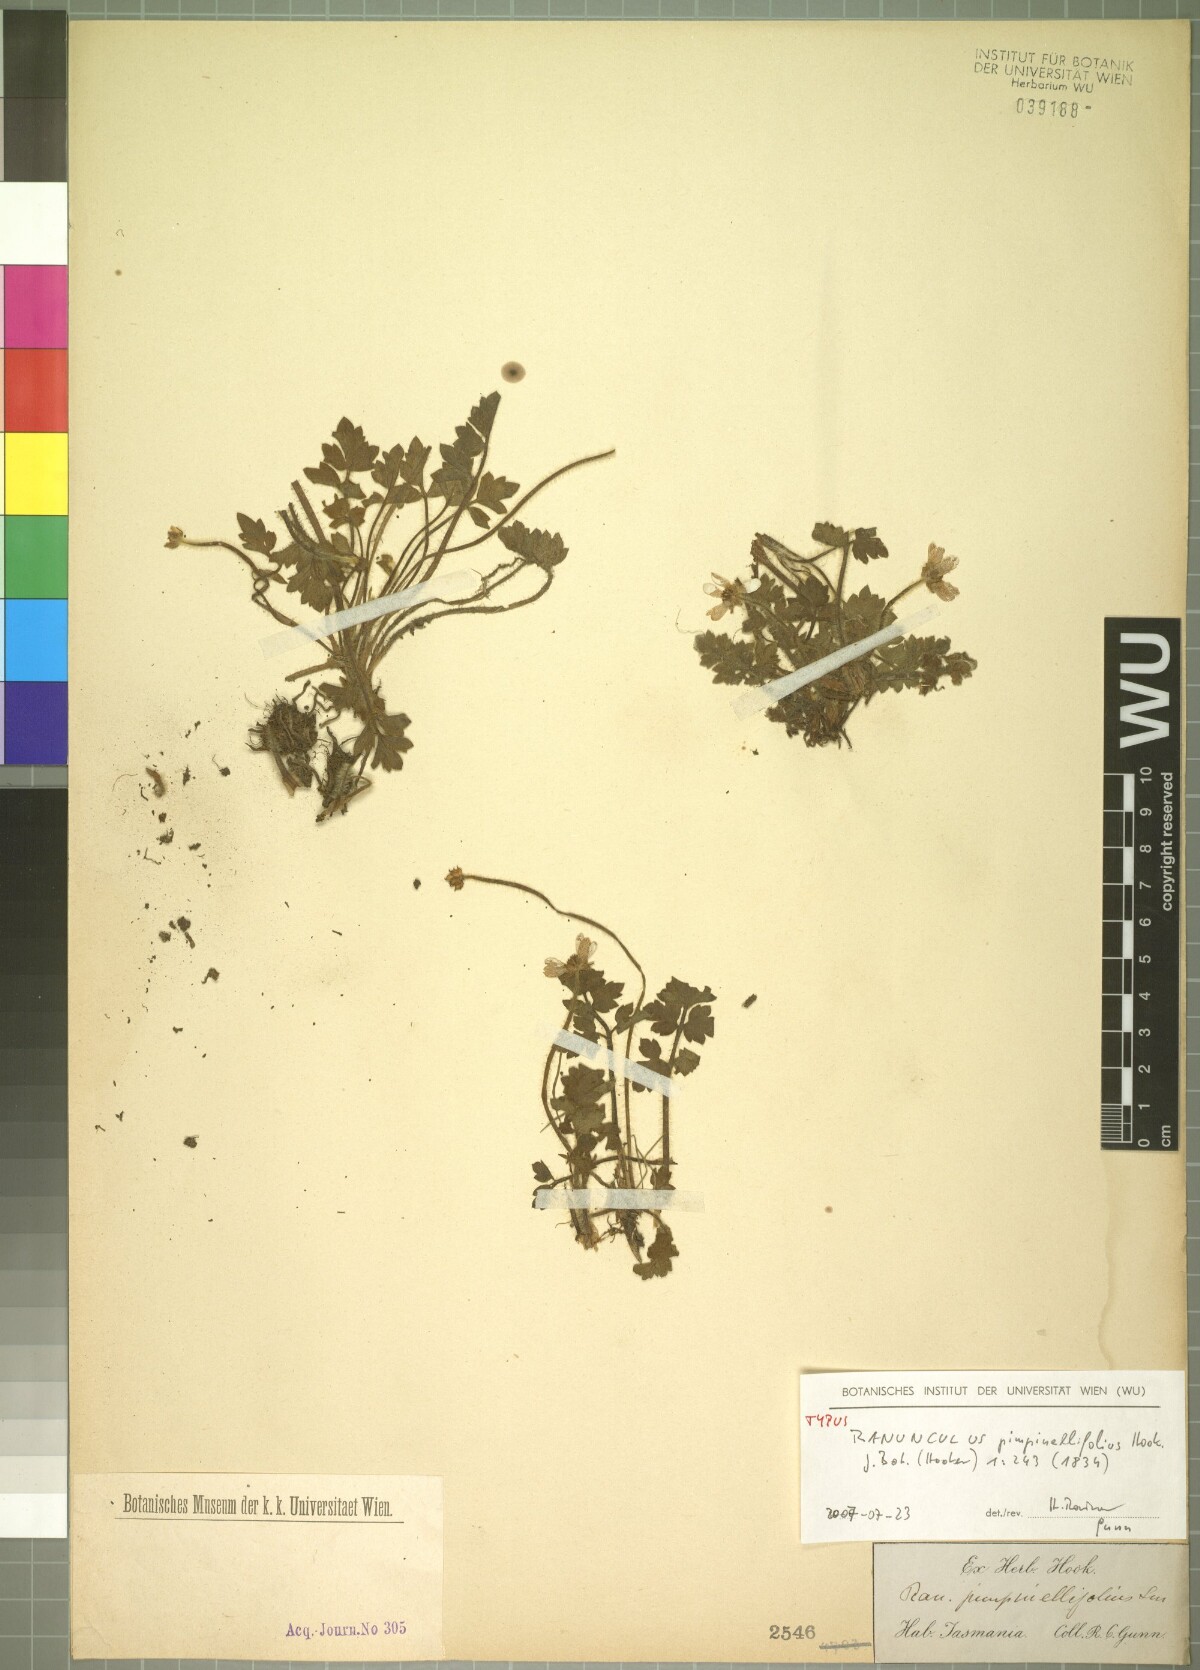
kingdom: Plantae
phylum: Tracheophyta
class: Magnoliopsida
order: Ranunculales
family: Ranunculaceae
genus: Ranunculus
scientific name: Ranunculus pimpinellifolius
